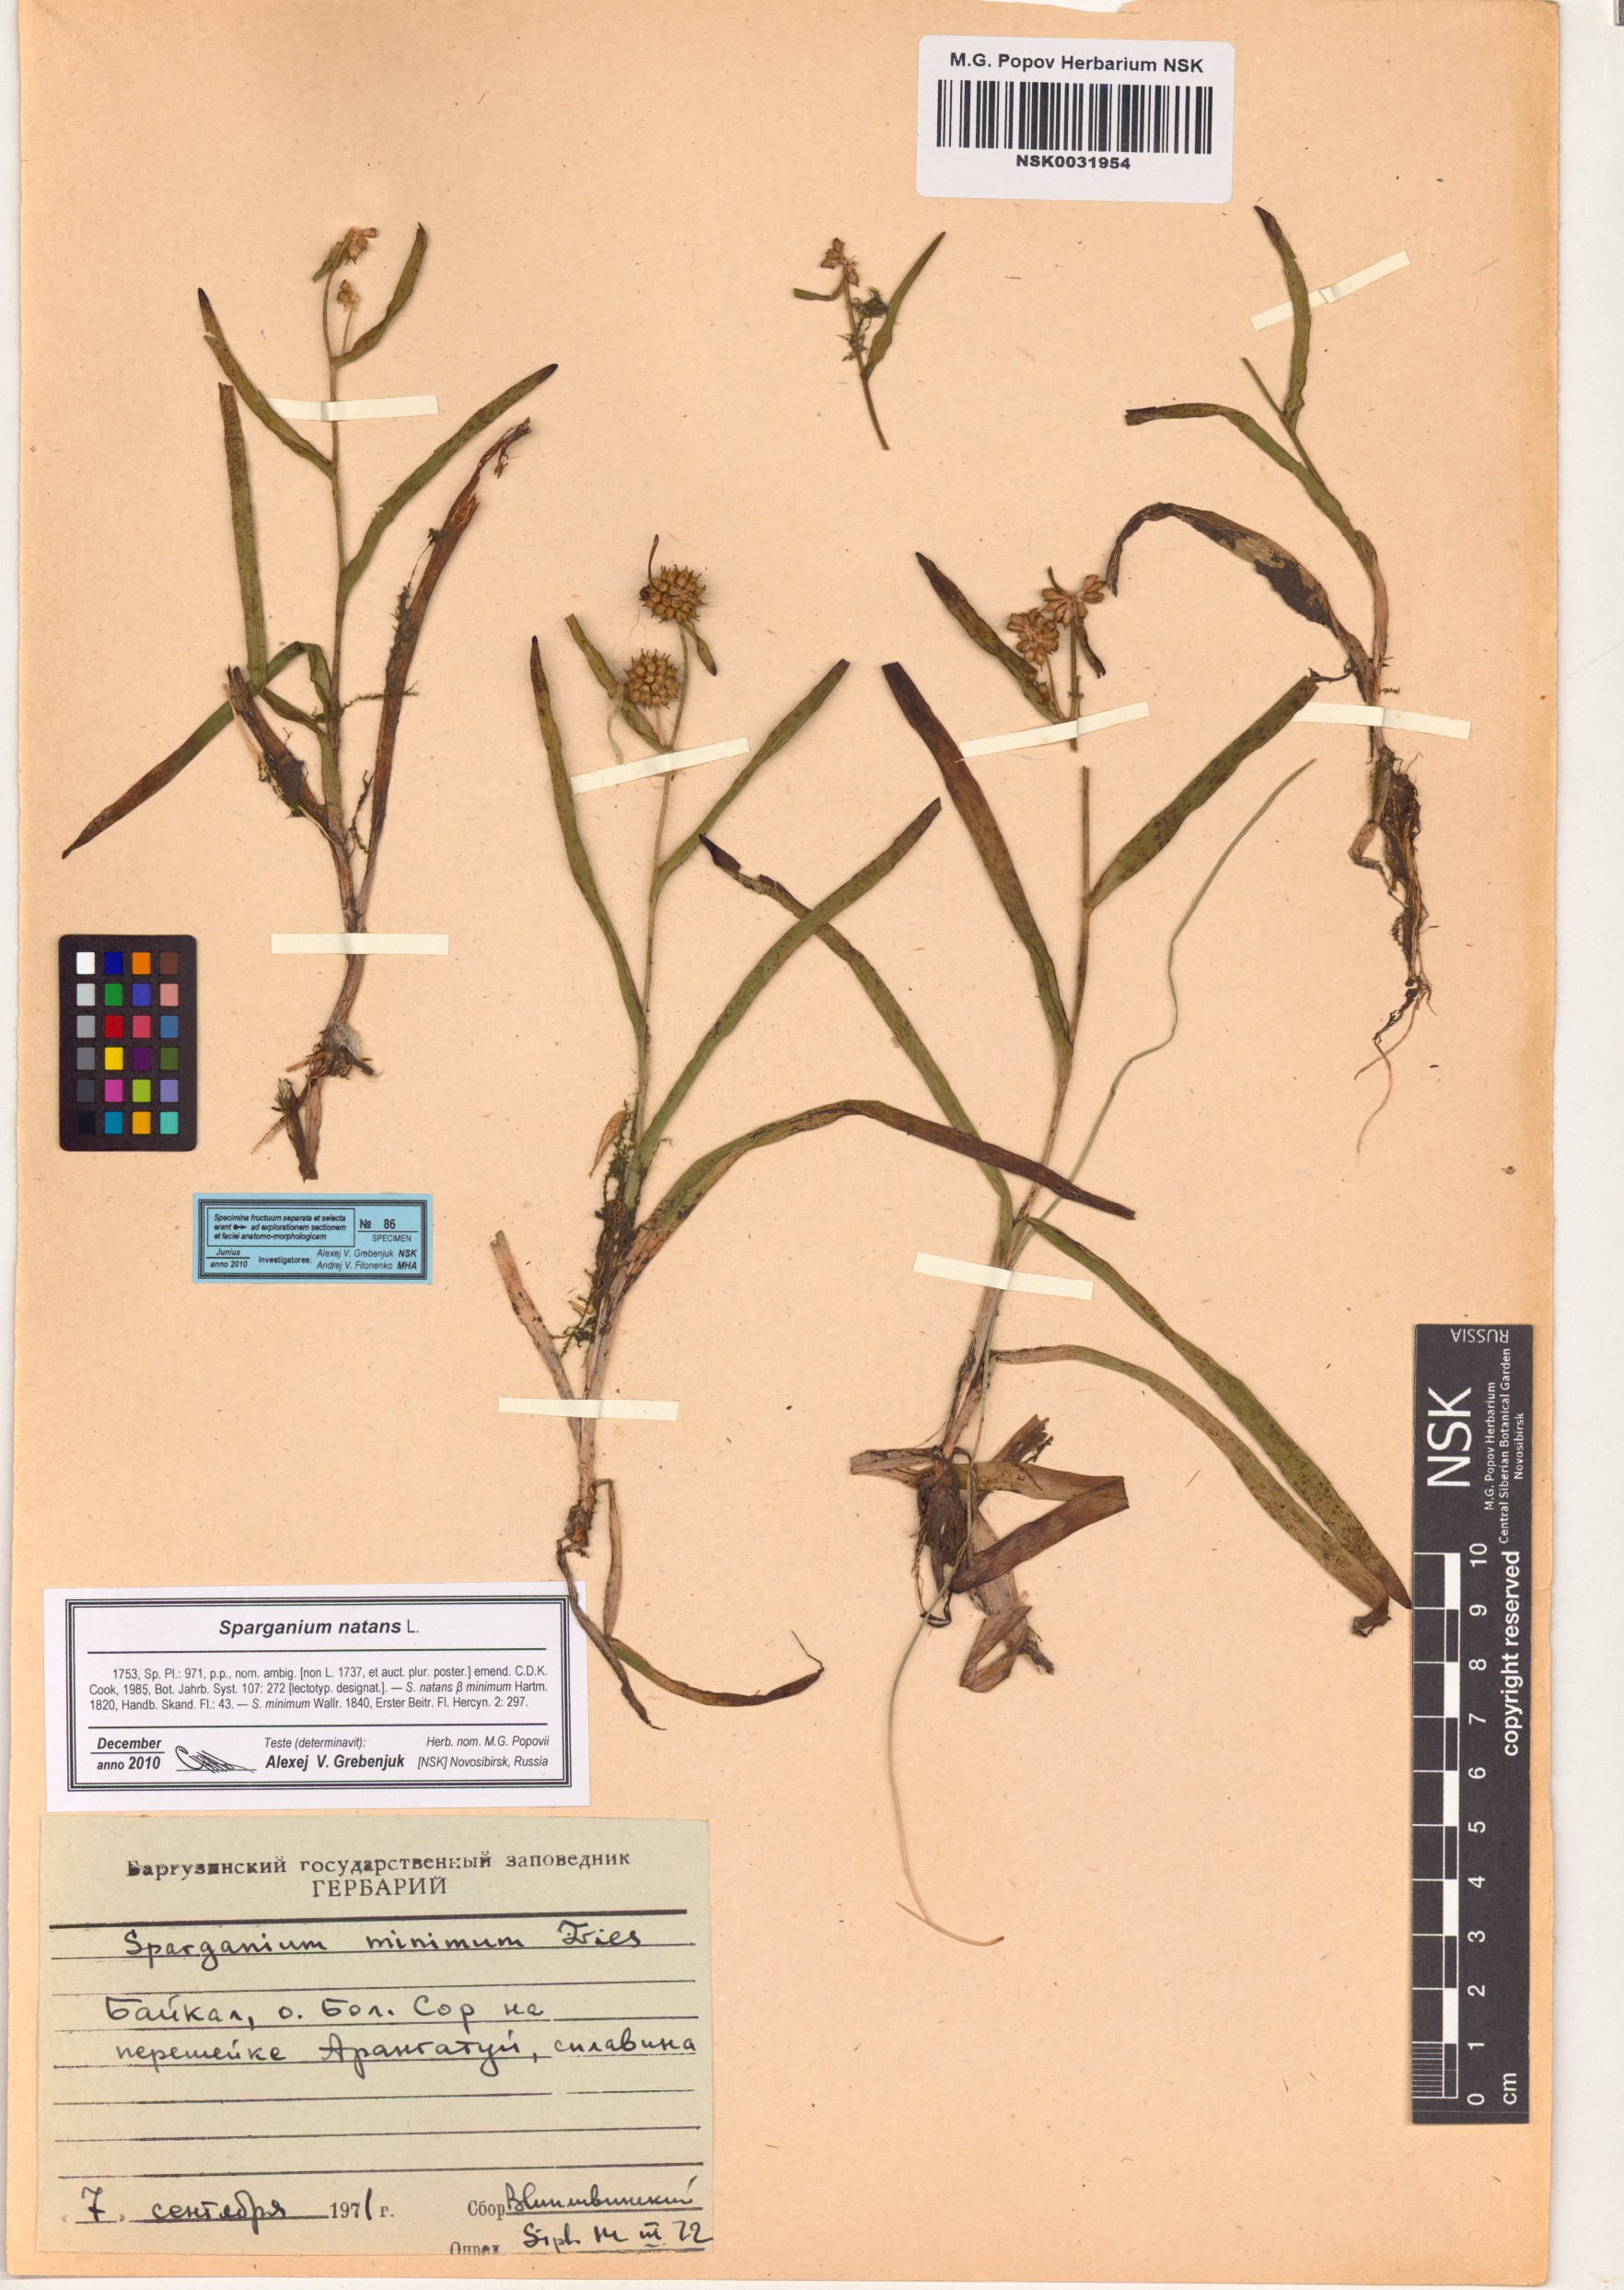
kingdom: Plantae
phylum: Tracheophyta
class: Liliopsida
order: Poales
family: Typhaceae
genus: Sparganium
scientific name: Sparganium natans
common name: Least bur-reed
